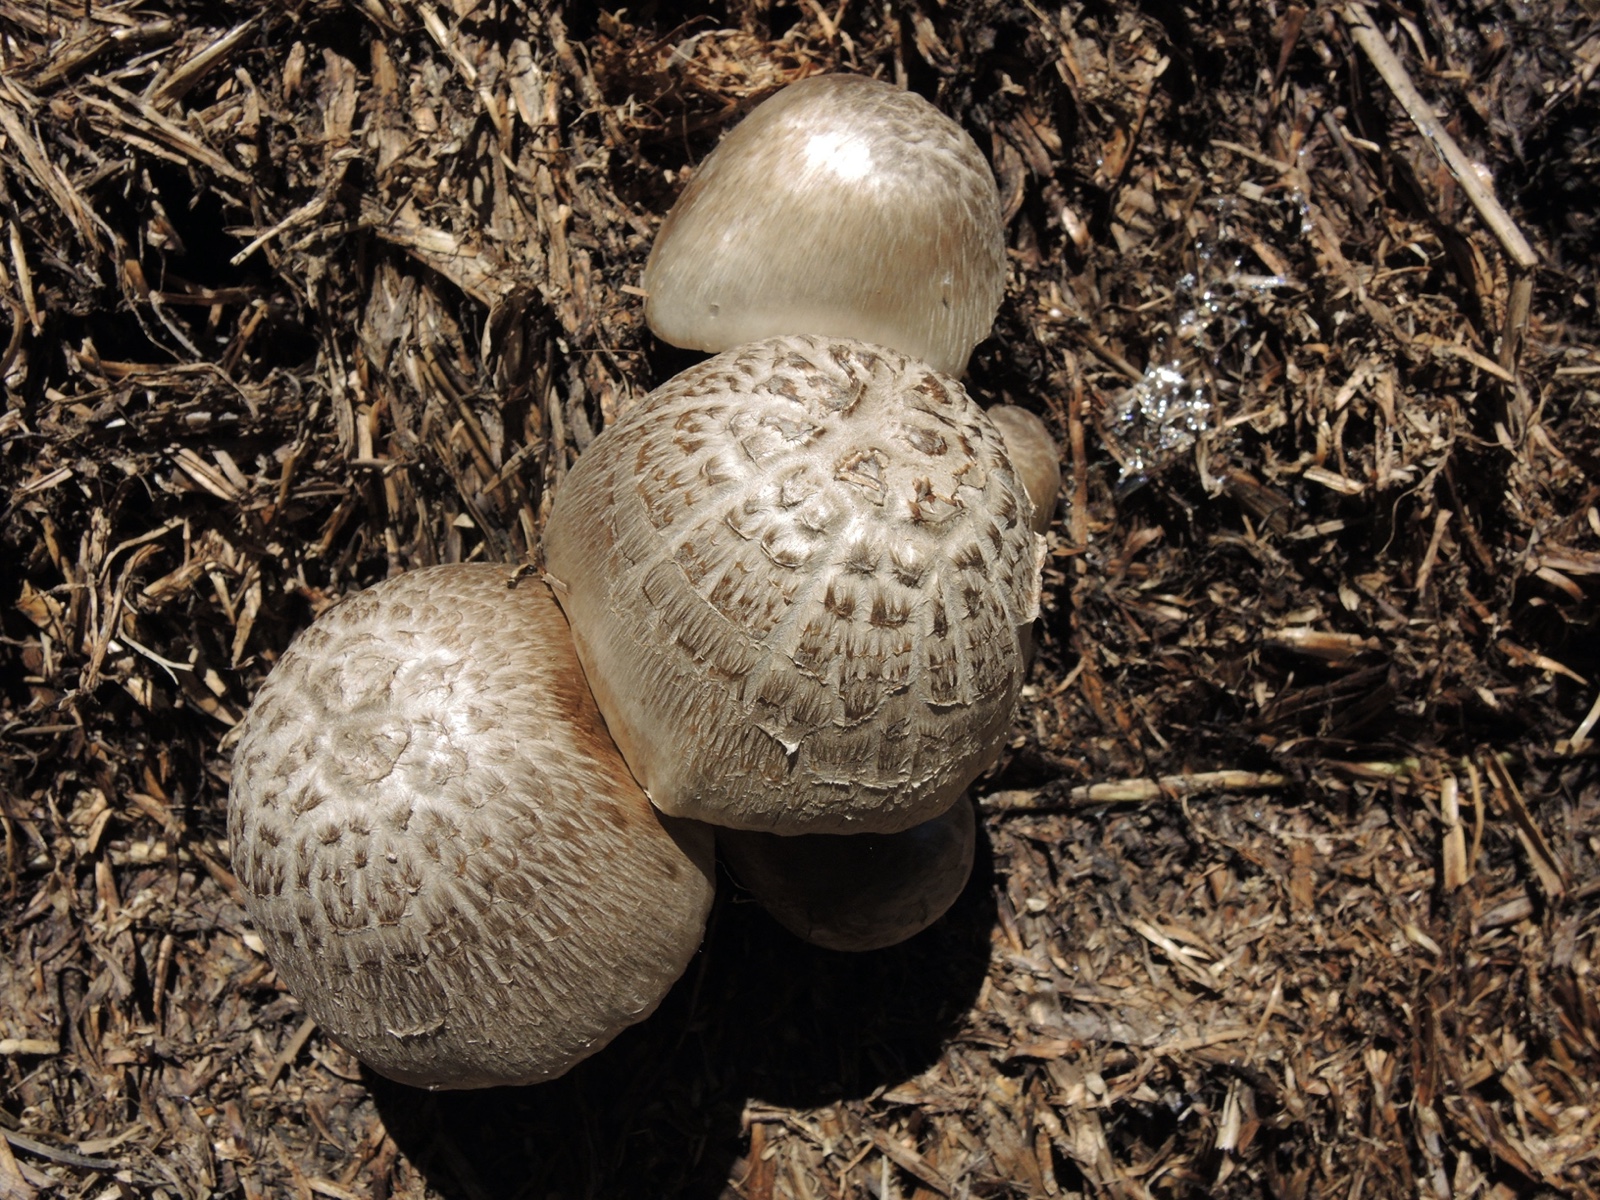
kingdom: Fungi
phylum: Basidiomycota
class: Agaricomycetes
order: Agaricales
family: Pluteaceae
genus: Volvopluteus
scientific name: Volvopluteus gloiocephalus
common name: høj posesvamp
